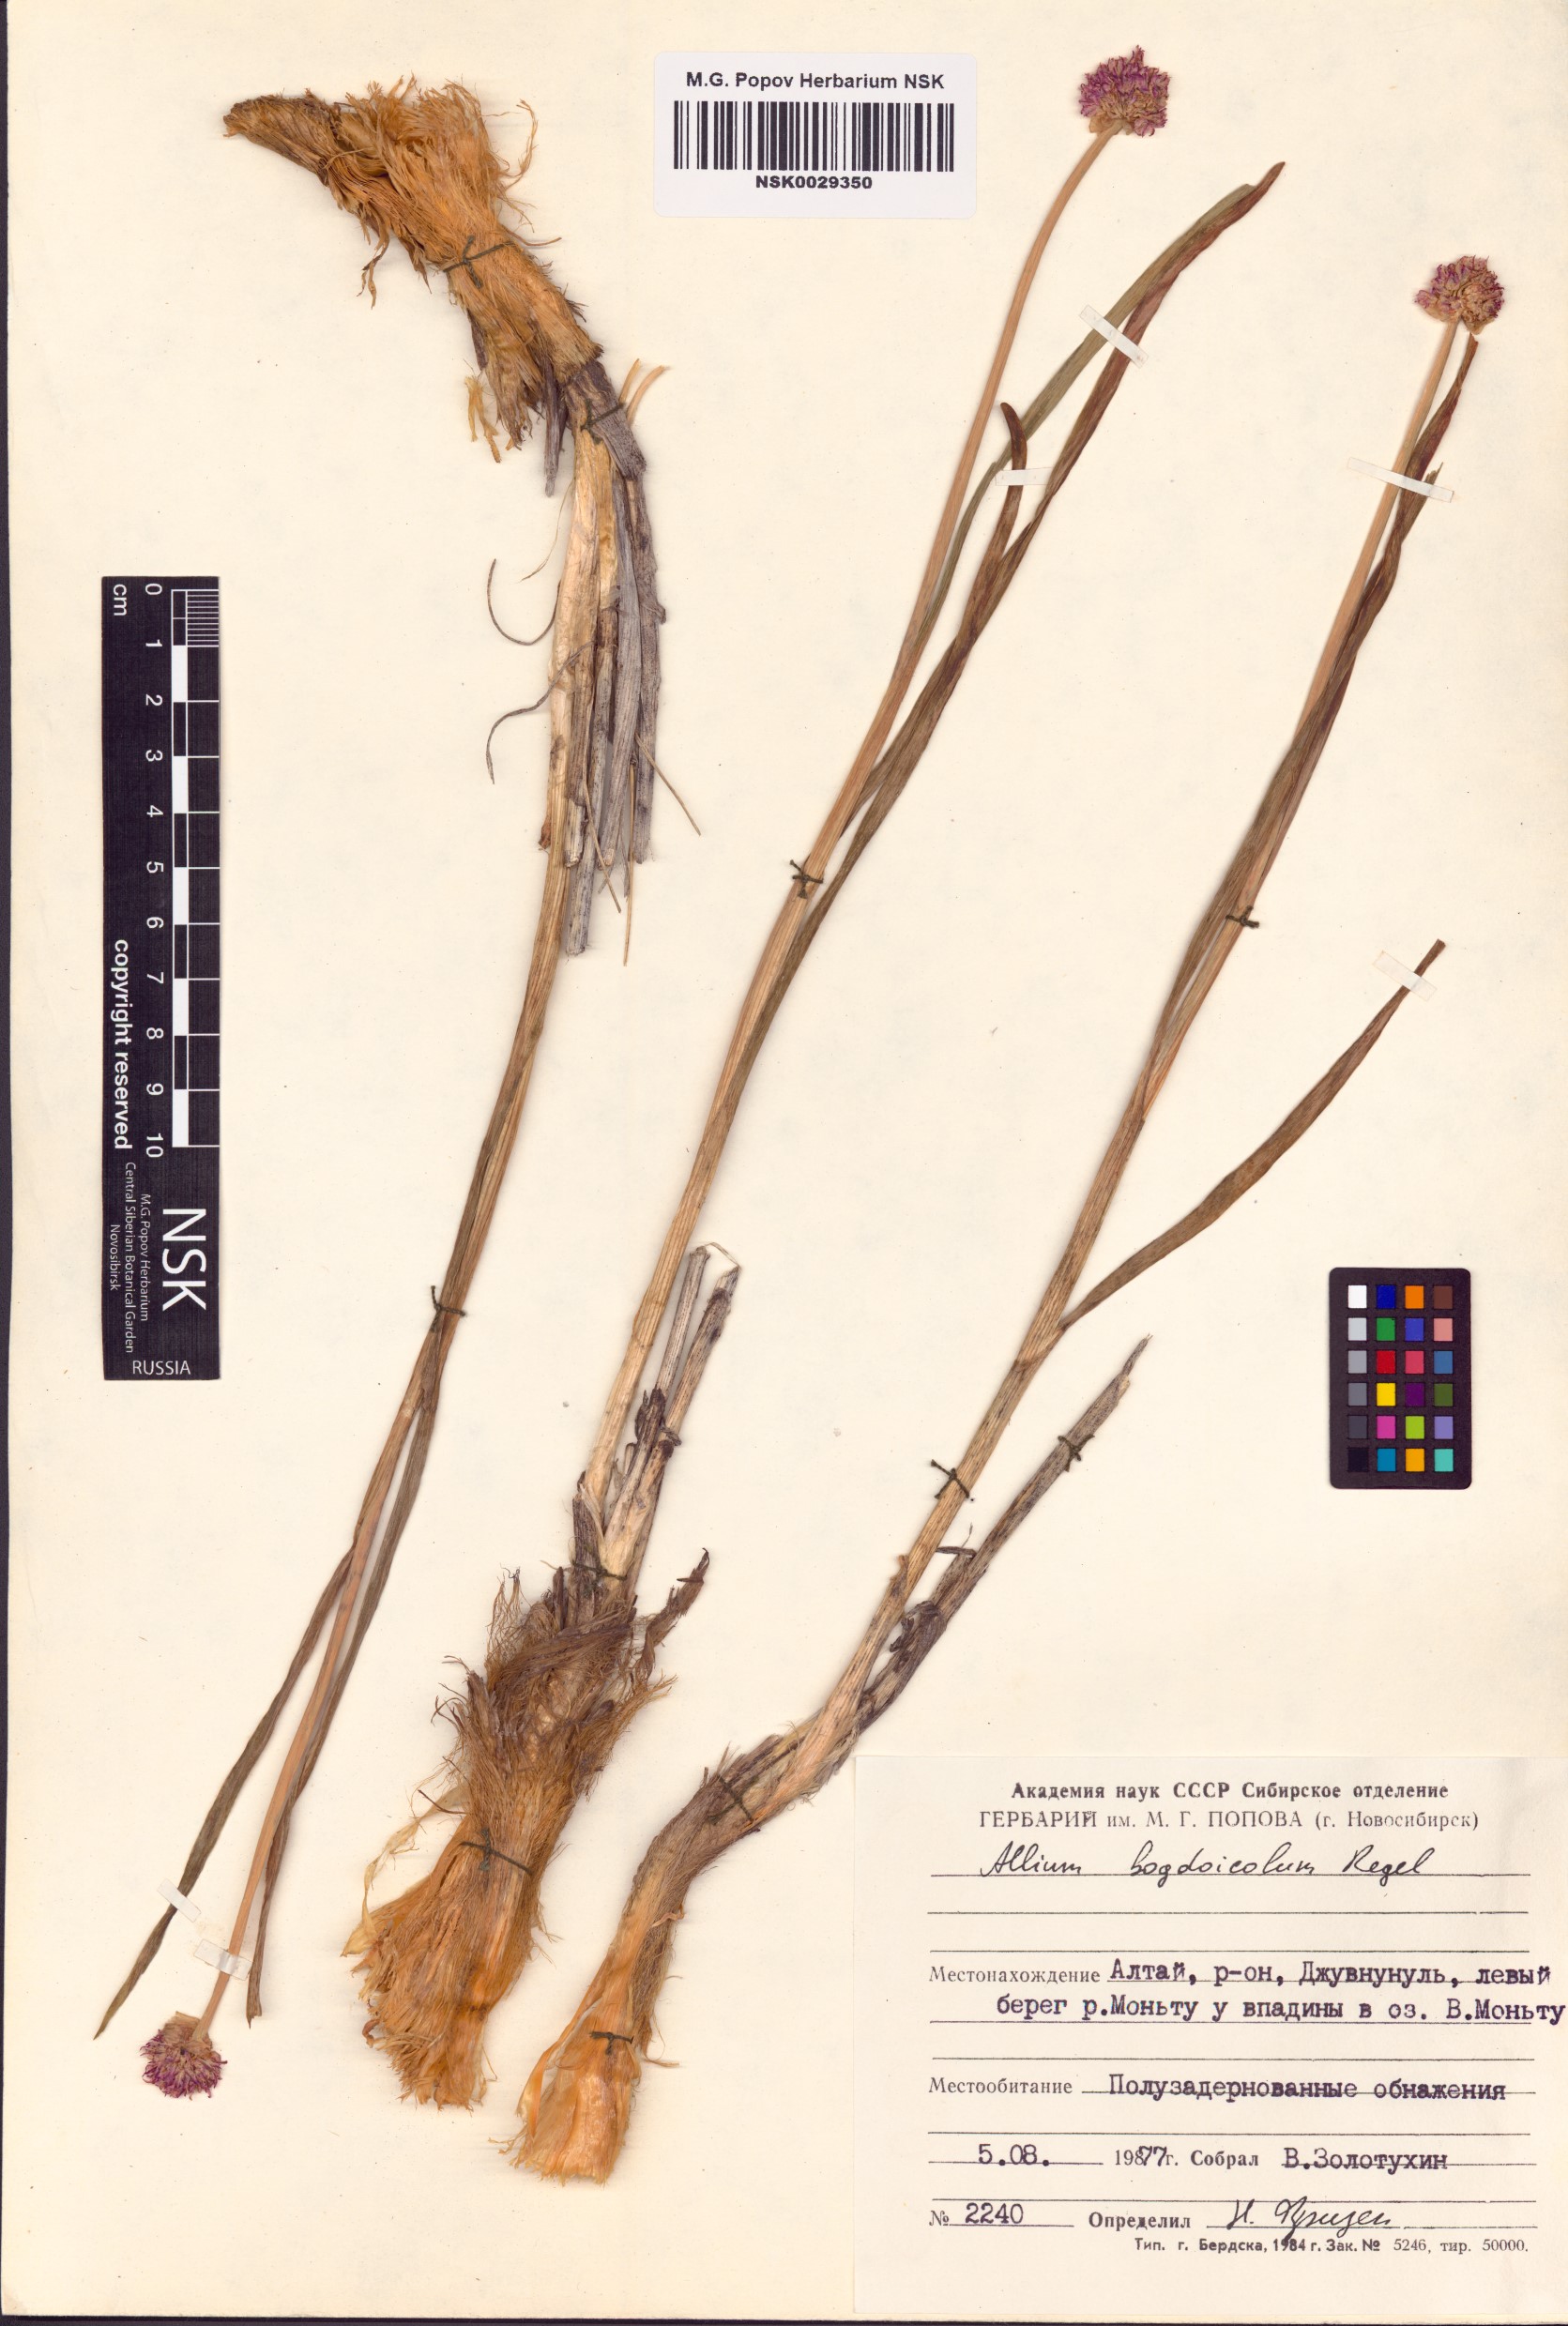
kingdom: Plantae
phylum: Tracheophyta
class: Liliopsida
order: Asparagales
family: Amaryllidaceae
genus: Allium
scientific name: Allium schrenkii
